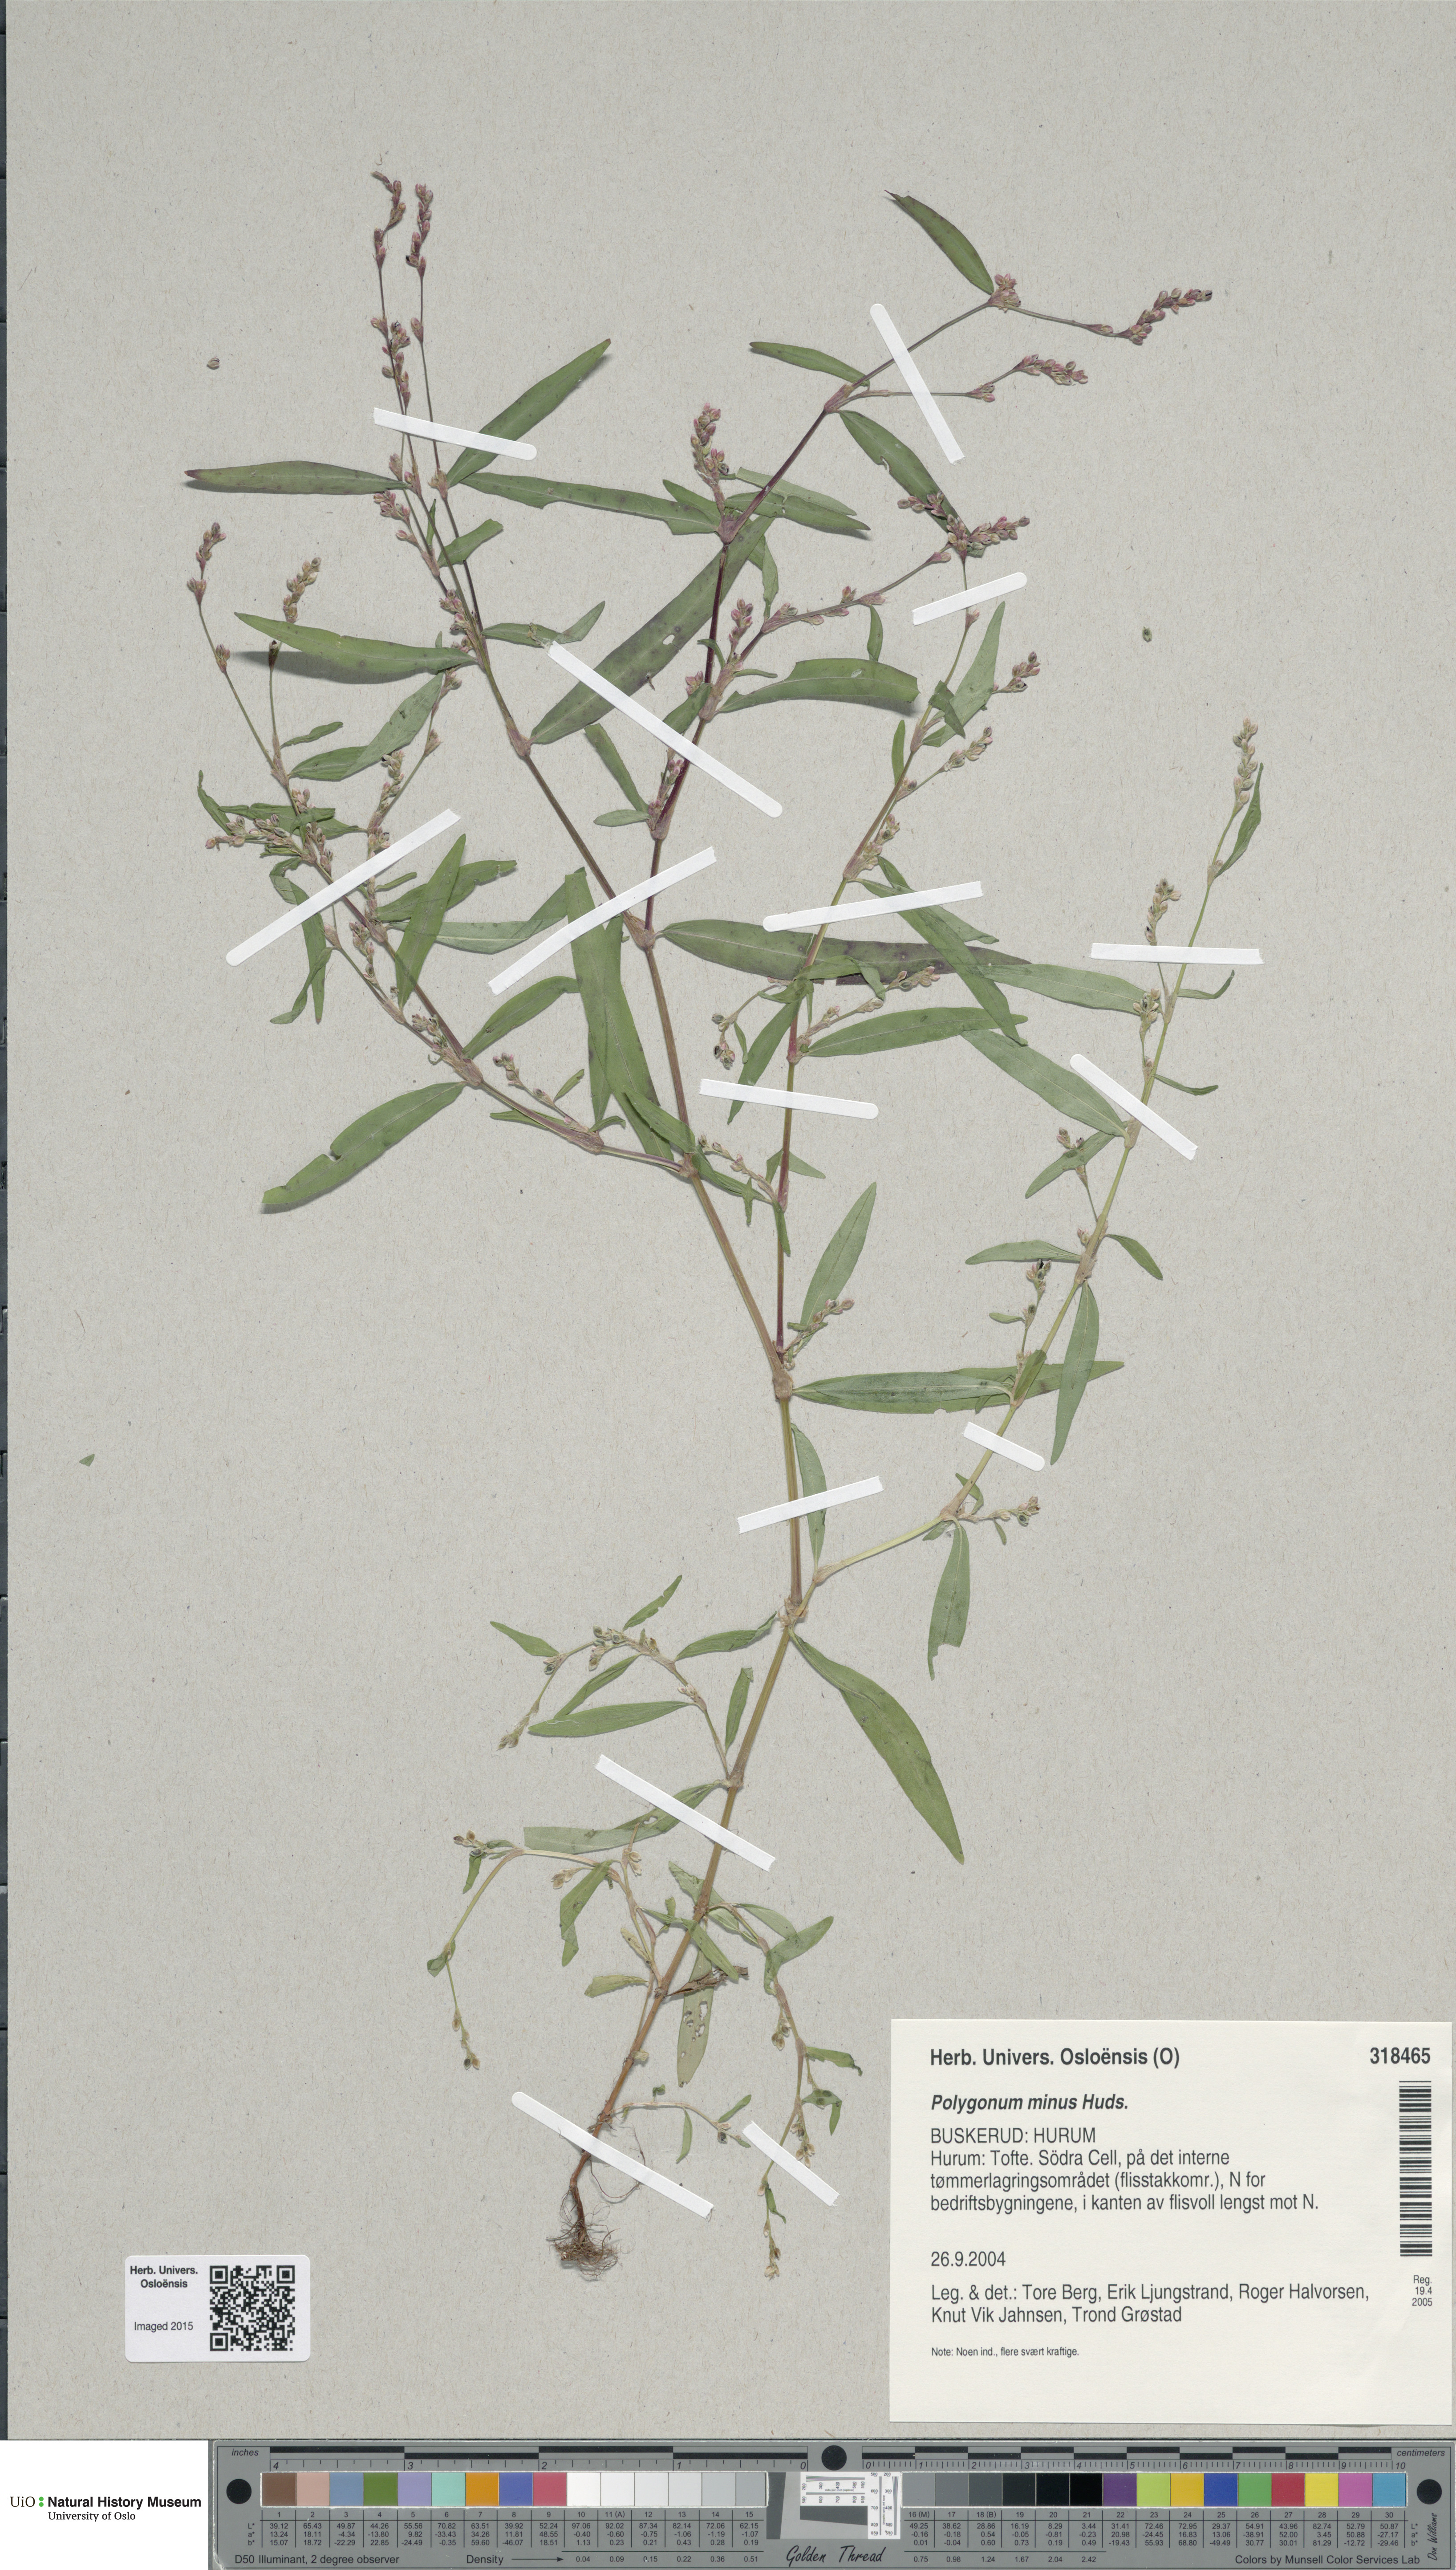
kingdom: Plantae
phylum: Tracheophyta
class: Magnoliopsida
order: Caryophyllales
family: Polygonaceae
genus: Persicaria
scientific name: Persicaria minor
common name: Small water-pepper
